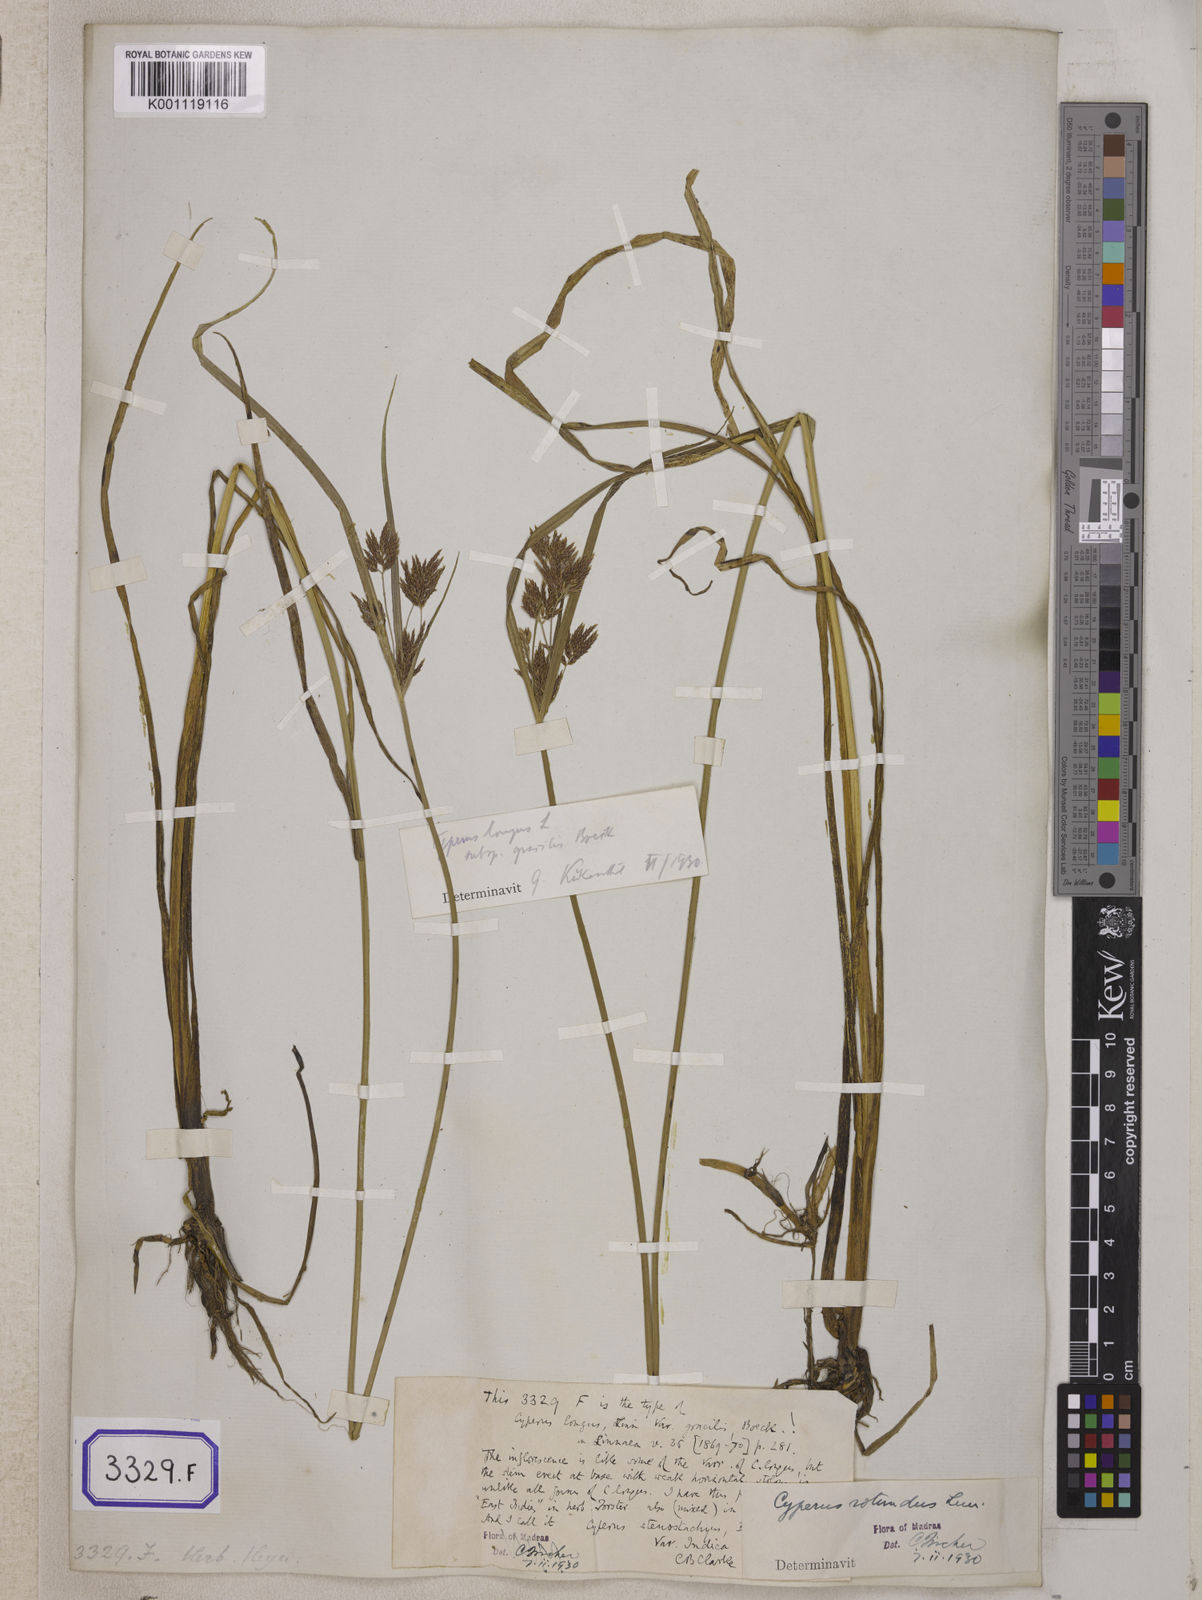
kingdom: Plantae
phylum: Tracheophyta
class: Liliopsida
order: Poales
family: Cyperaceae
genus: Cyperus
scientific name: Cyperus
